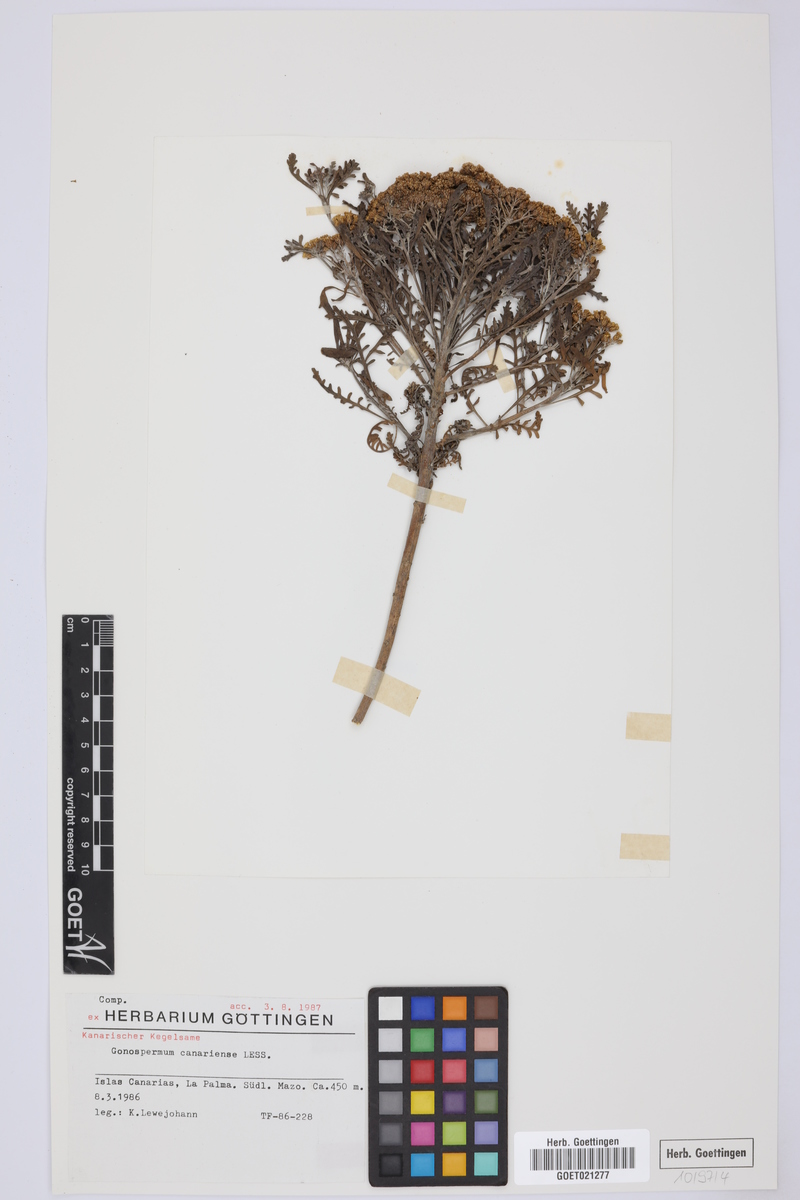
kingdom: Plantae
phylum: Tracheophyta
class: Magnoliopsida
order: Asterales
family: Asteraceae
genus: Gonospermum
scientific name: Gonospermum canariense
